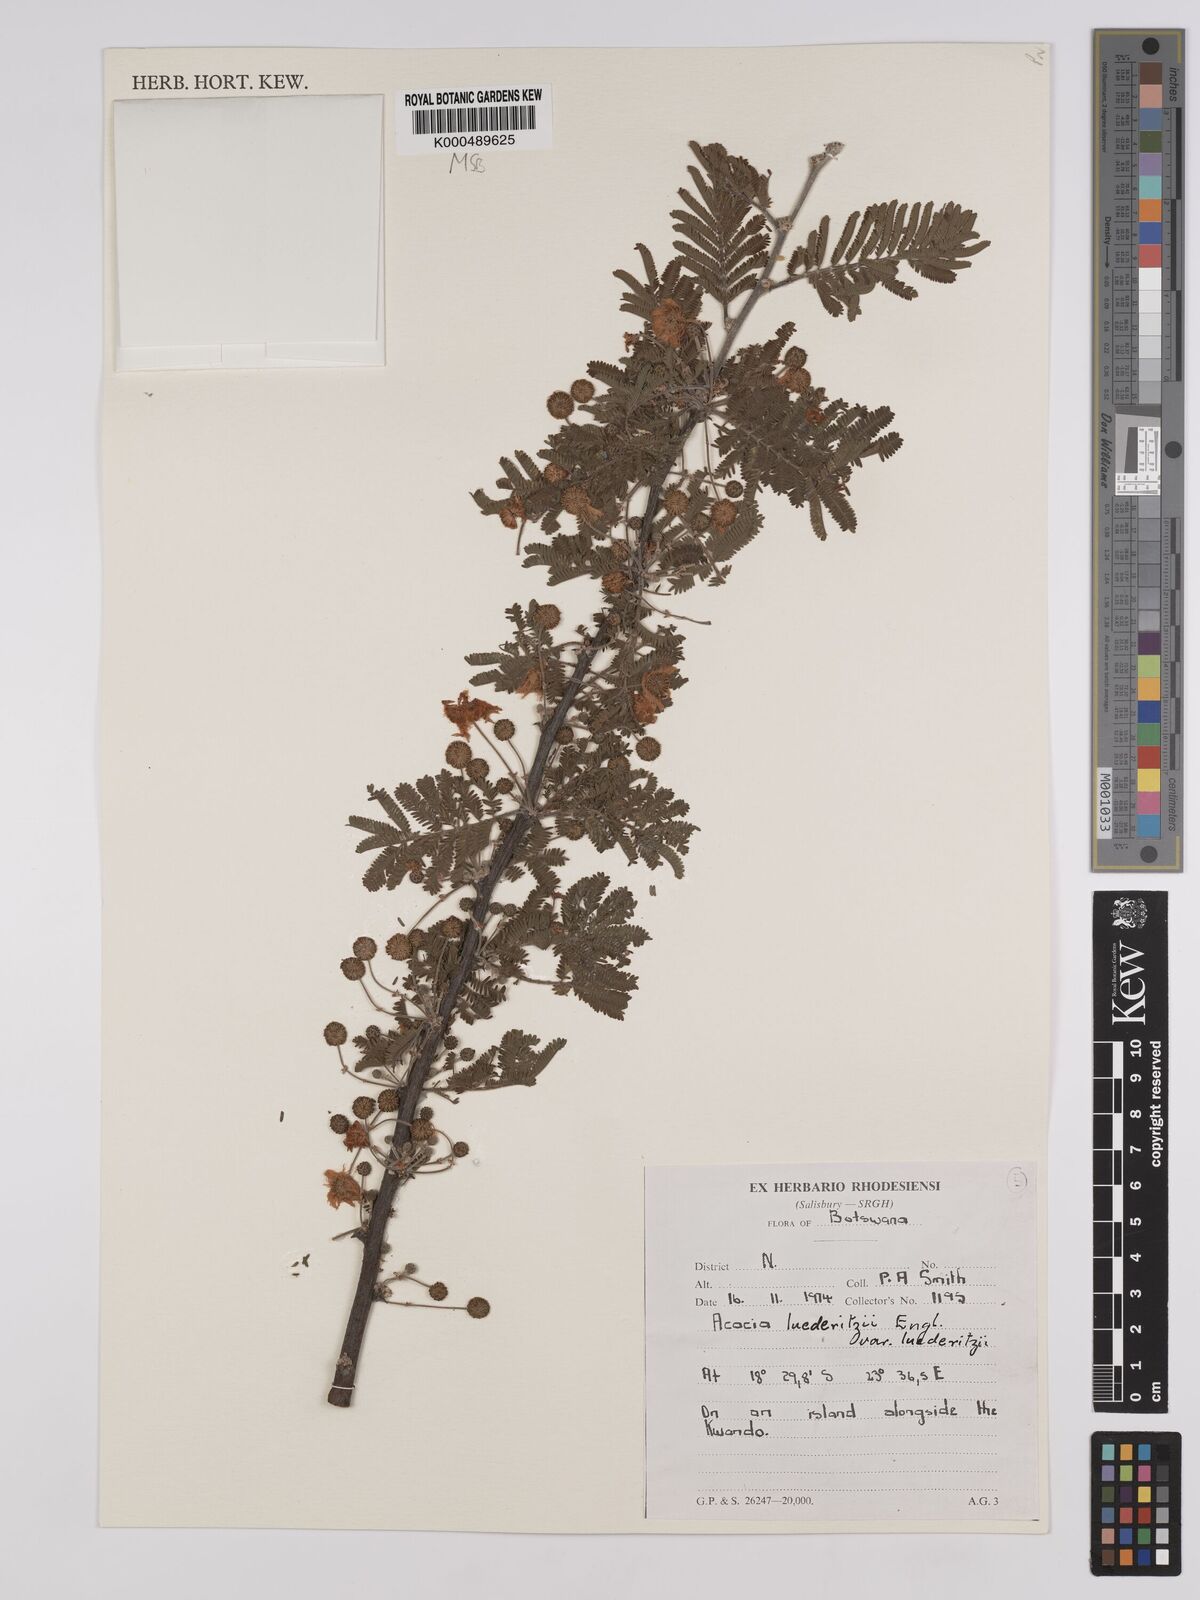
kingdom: Plantae
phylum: Tracheophyta
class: Magnoliopsida
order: Fabales
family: Fabaceae
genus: Vachellia
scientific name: Vachellia
